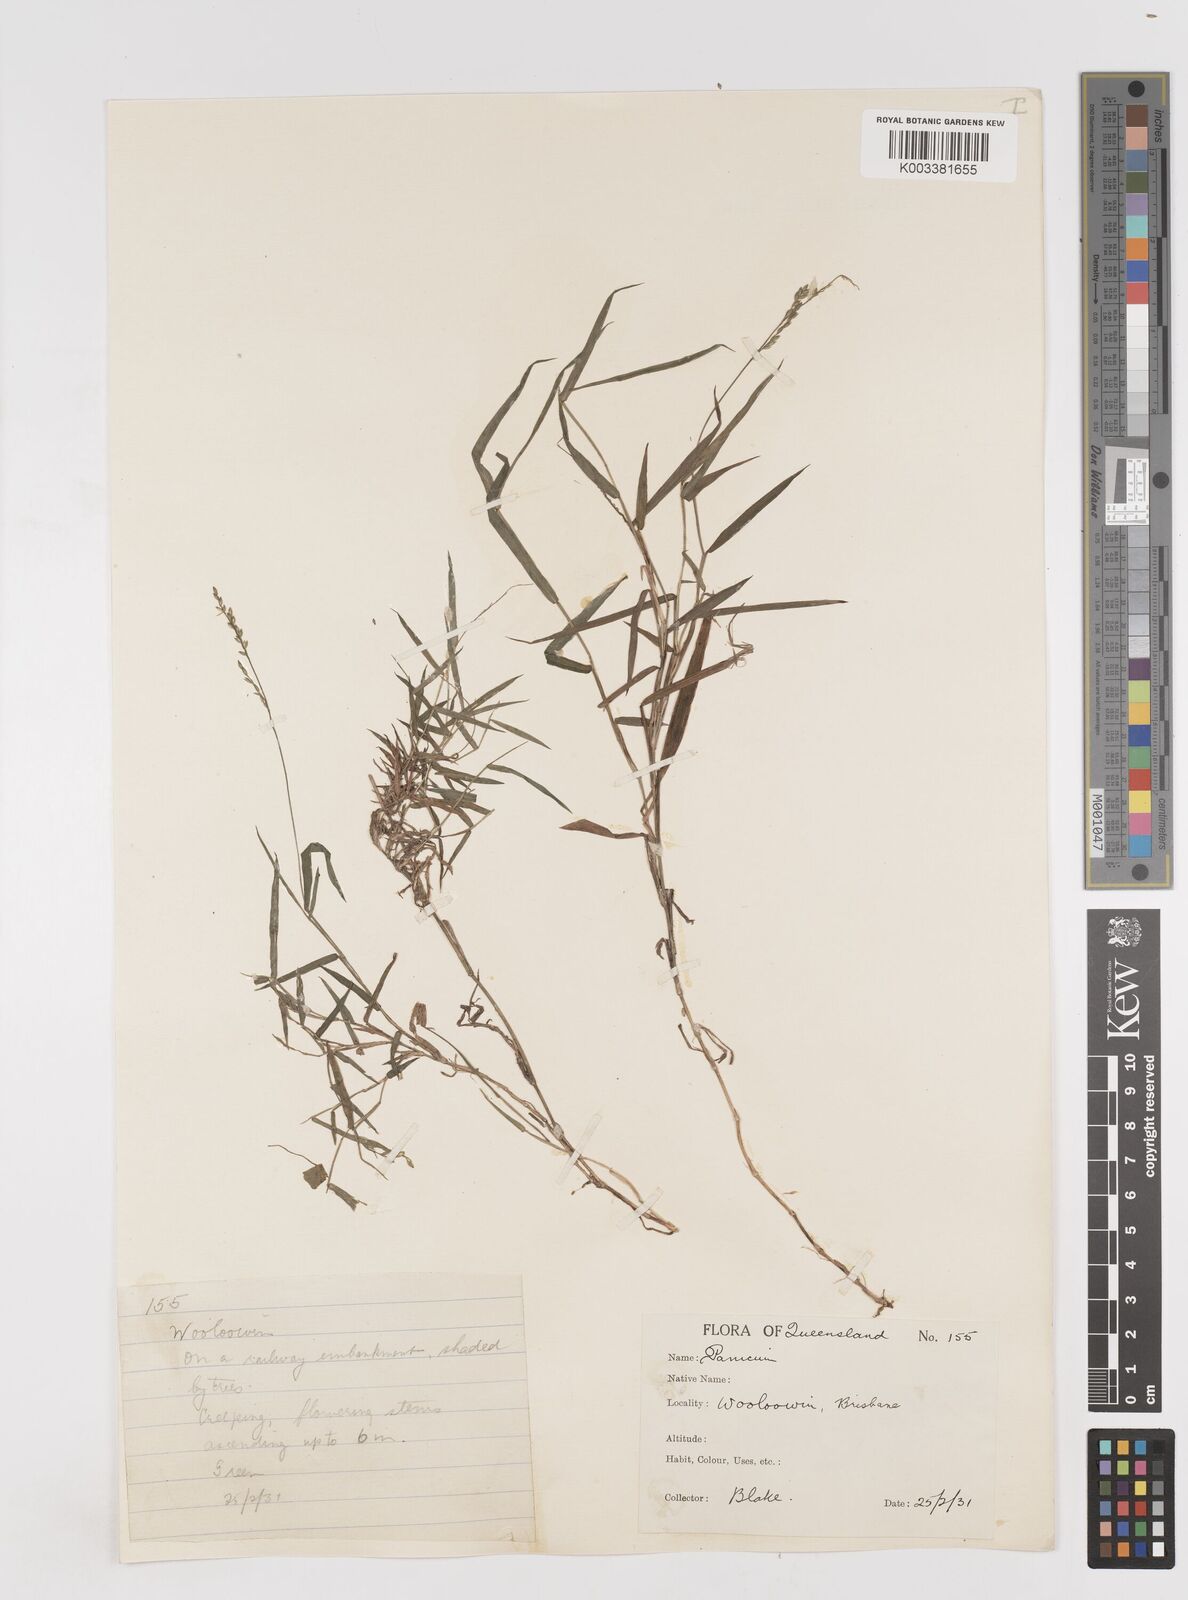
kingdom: Plantae
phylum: Tracheophyta
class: Liliopsida
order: Poales
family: Poaceae
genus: Entolasia
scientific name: Entolasia marginata
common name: Australian panicgrass
